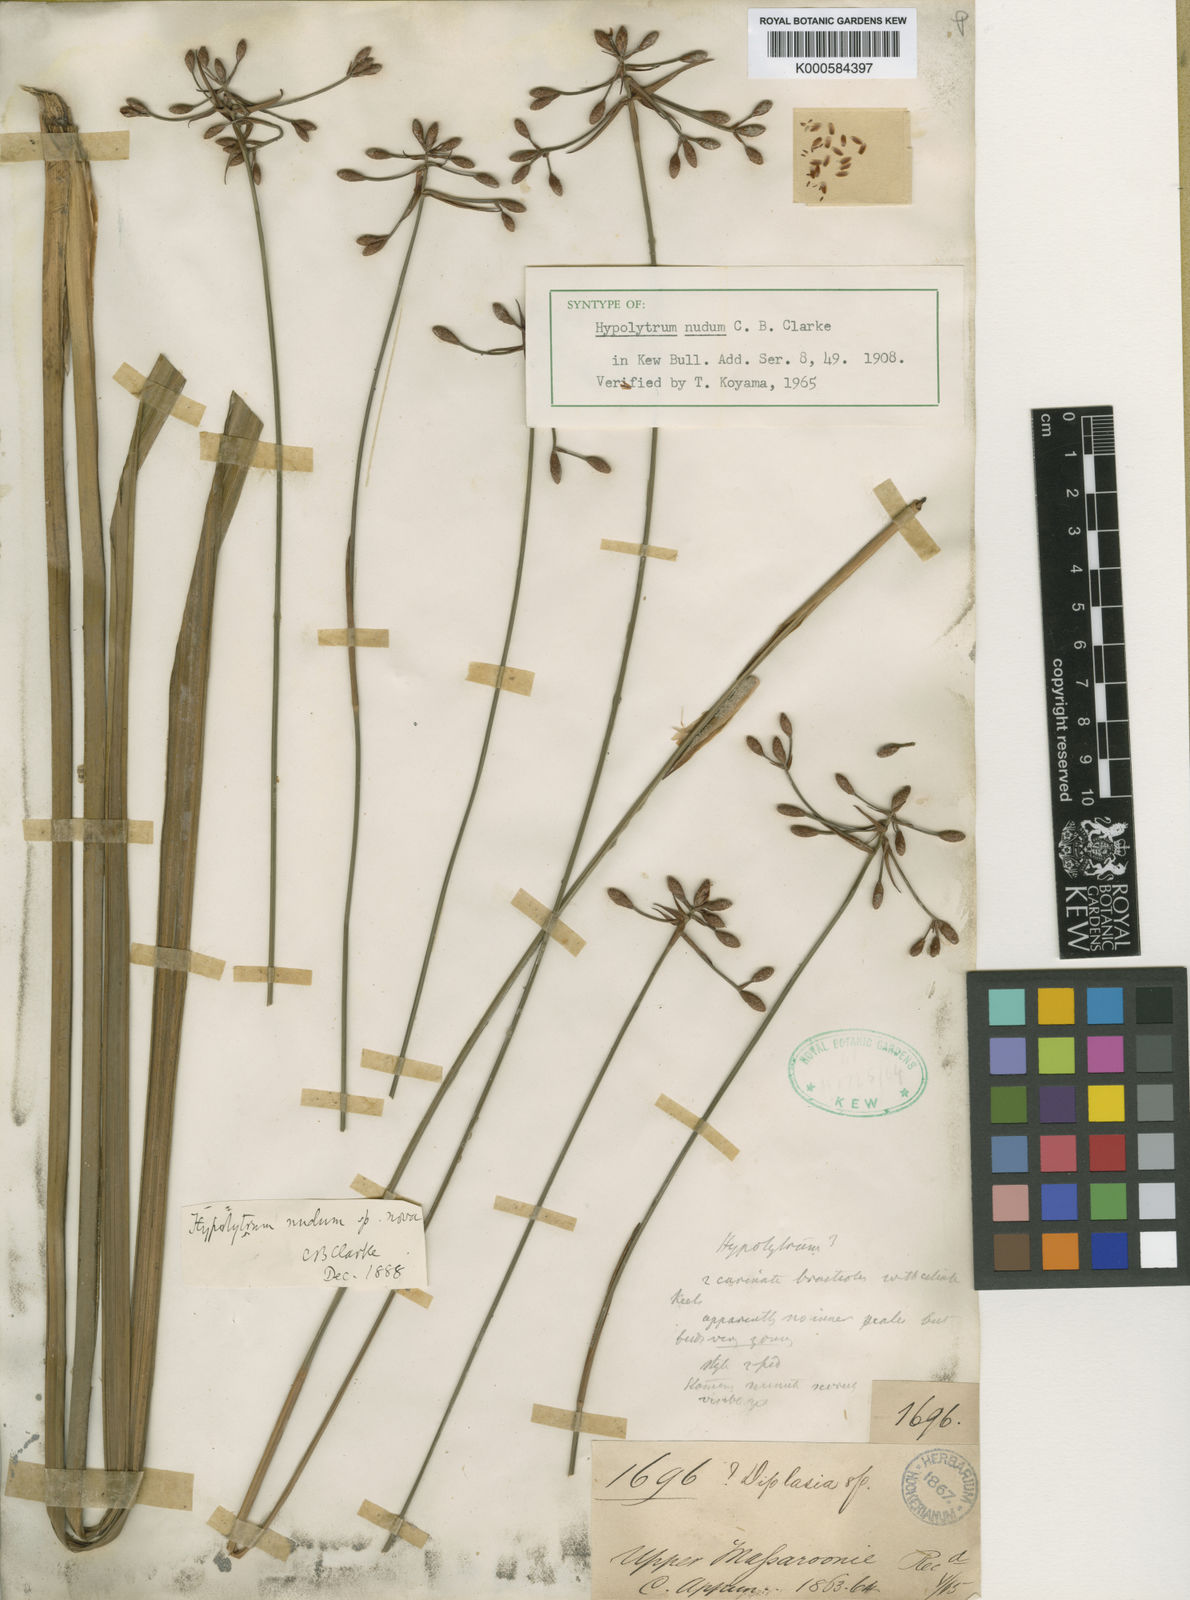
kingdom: Plantae
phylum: Tracheophyta
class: Liliopsida
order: Poales
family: Cyperaceae
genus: Hypolytrum
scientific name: Hypolytrum nudum
